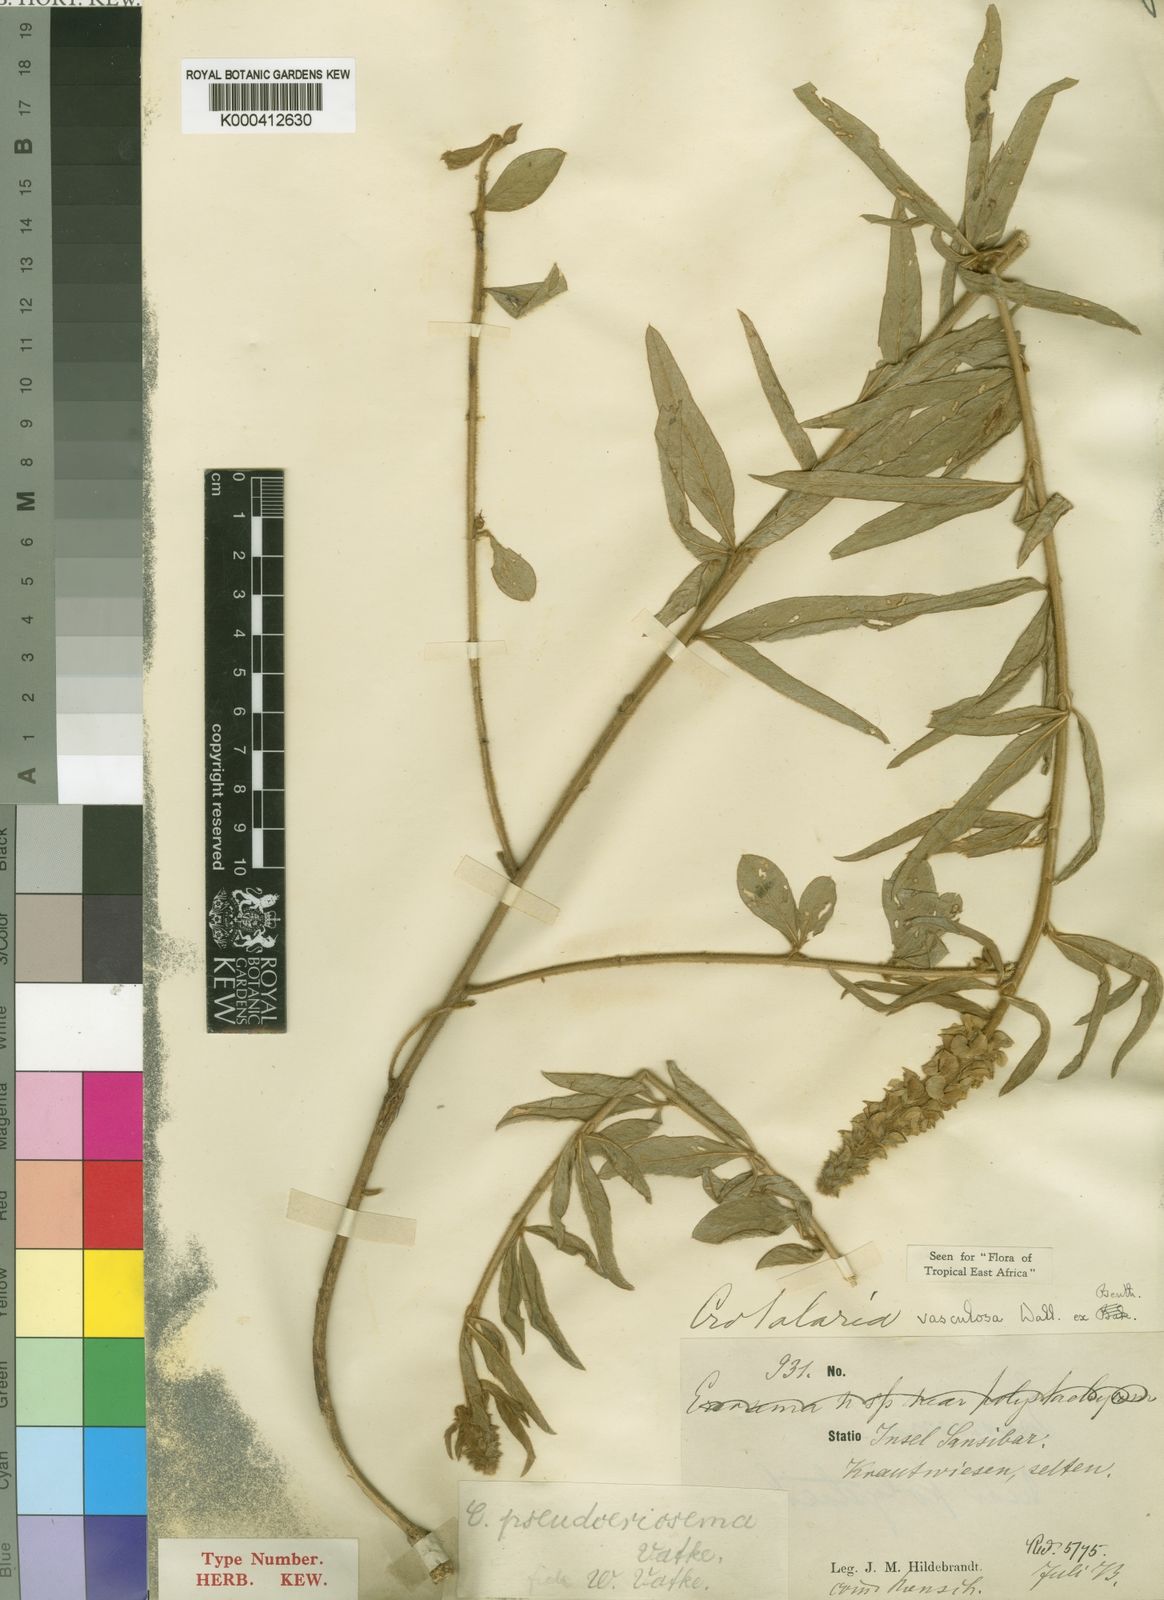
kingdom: Plantae
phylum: Tracheophyta
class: Magnoliopsida
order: Fabales
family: Fabaceae
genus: Crotalaria
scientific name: Crotalaria vasculosa
